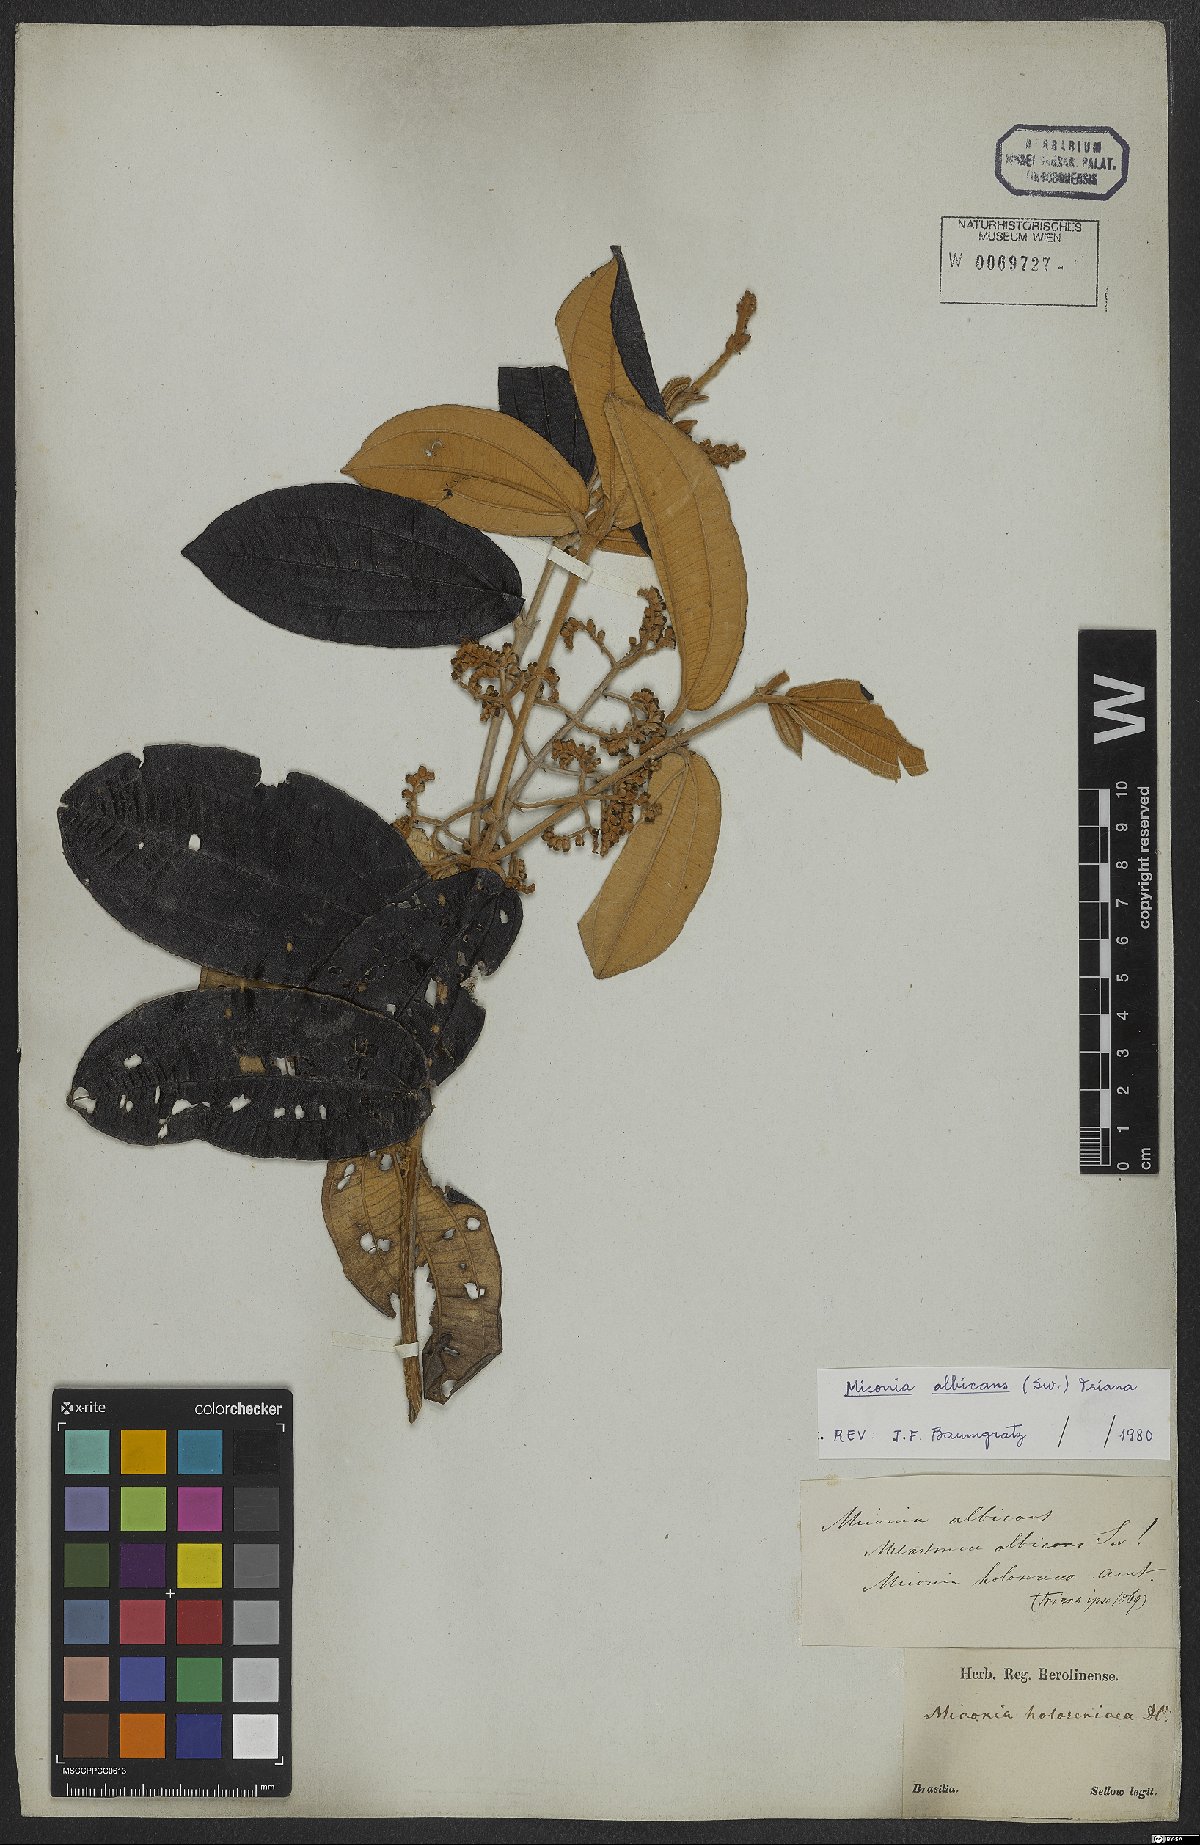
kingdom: Plantae
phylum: Tracheophyta
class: Magnoliopsida
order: Myrtales
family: Melastomataceae
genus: Miconia
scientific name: Miconia albicans
